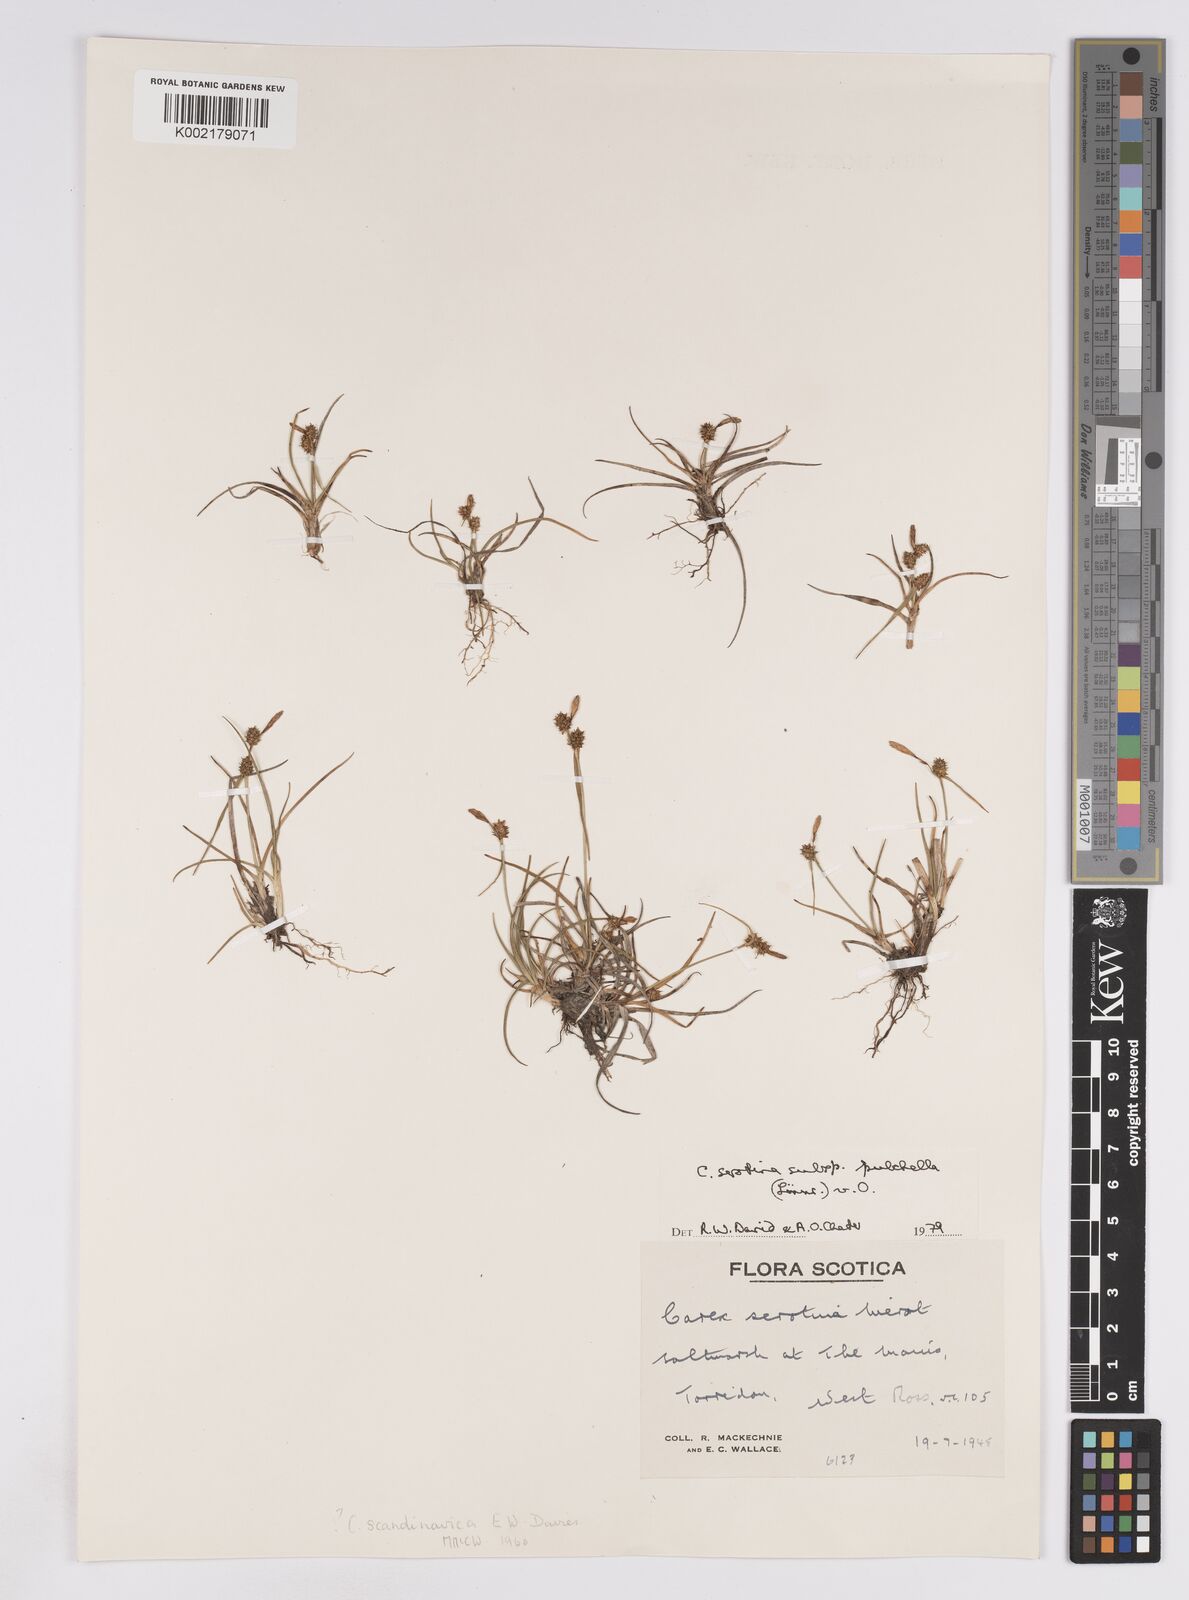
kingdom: Plantae
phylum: Tracheophyta
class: Liliopsida
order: Poales
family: Cyperaceae
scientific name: Cyperaceae
